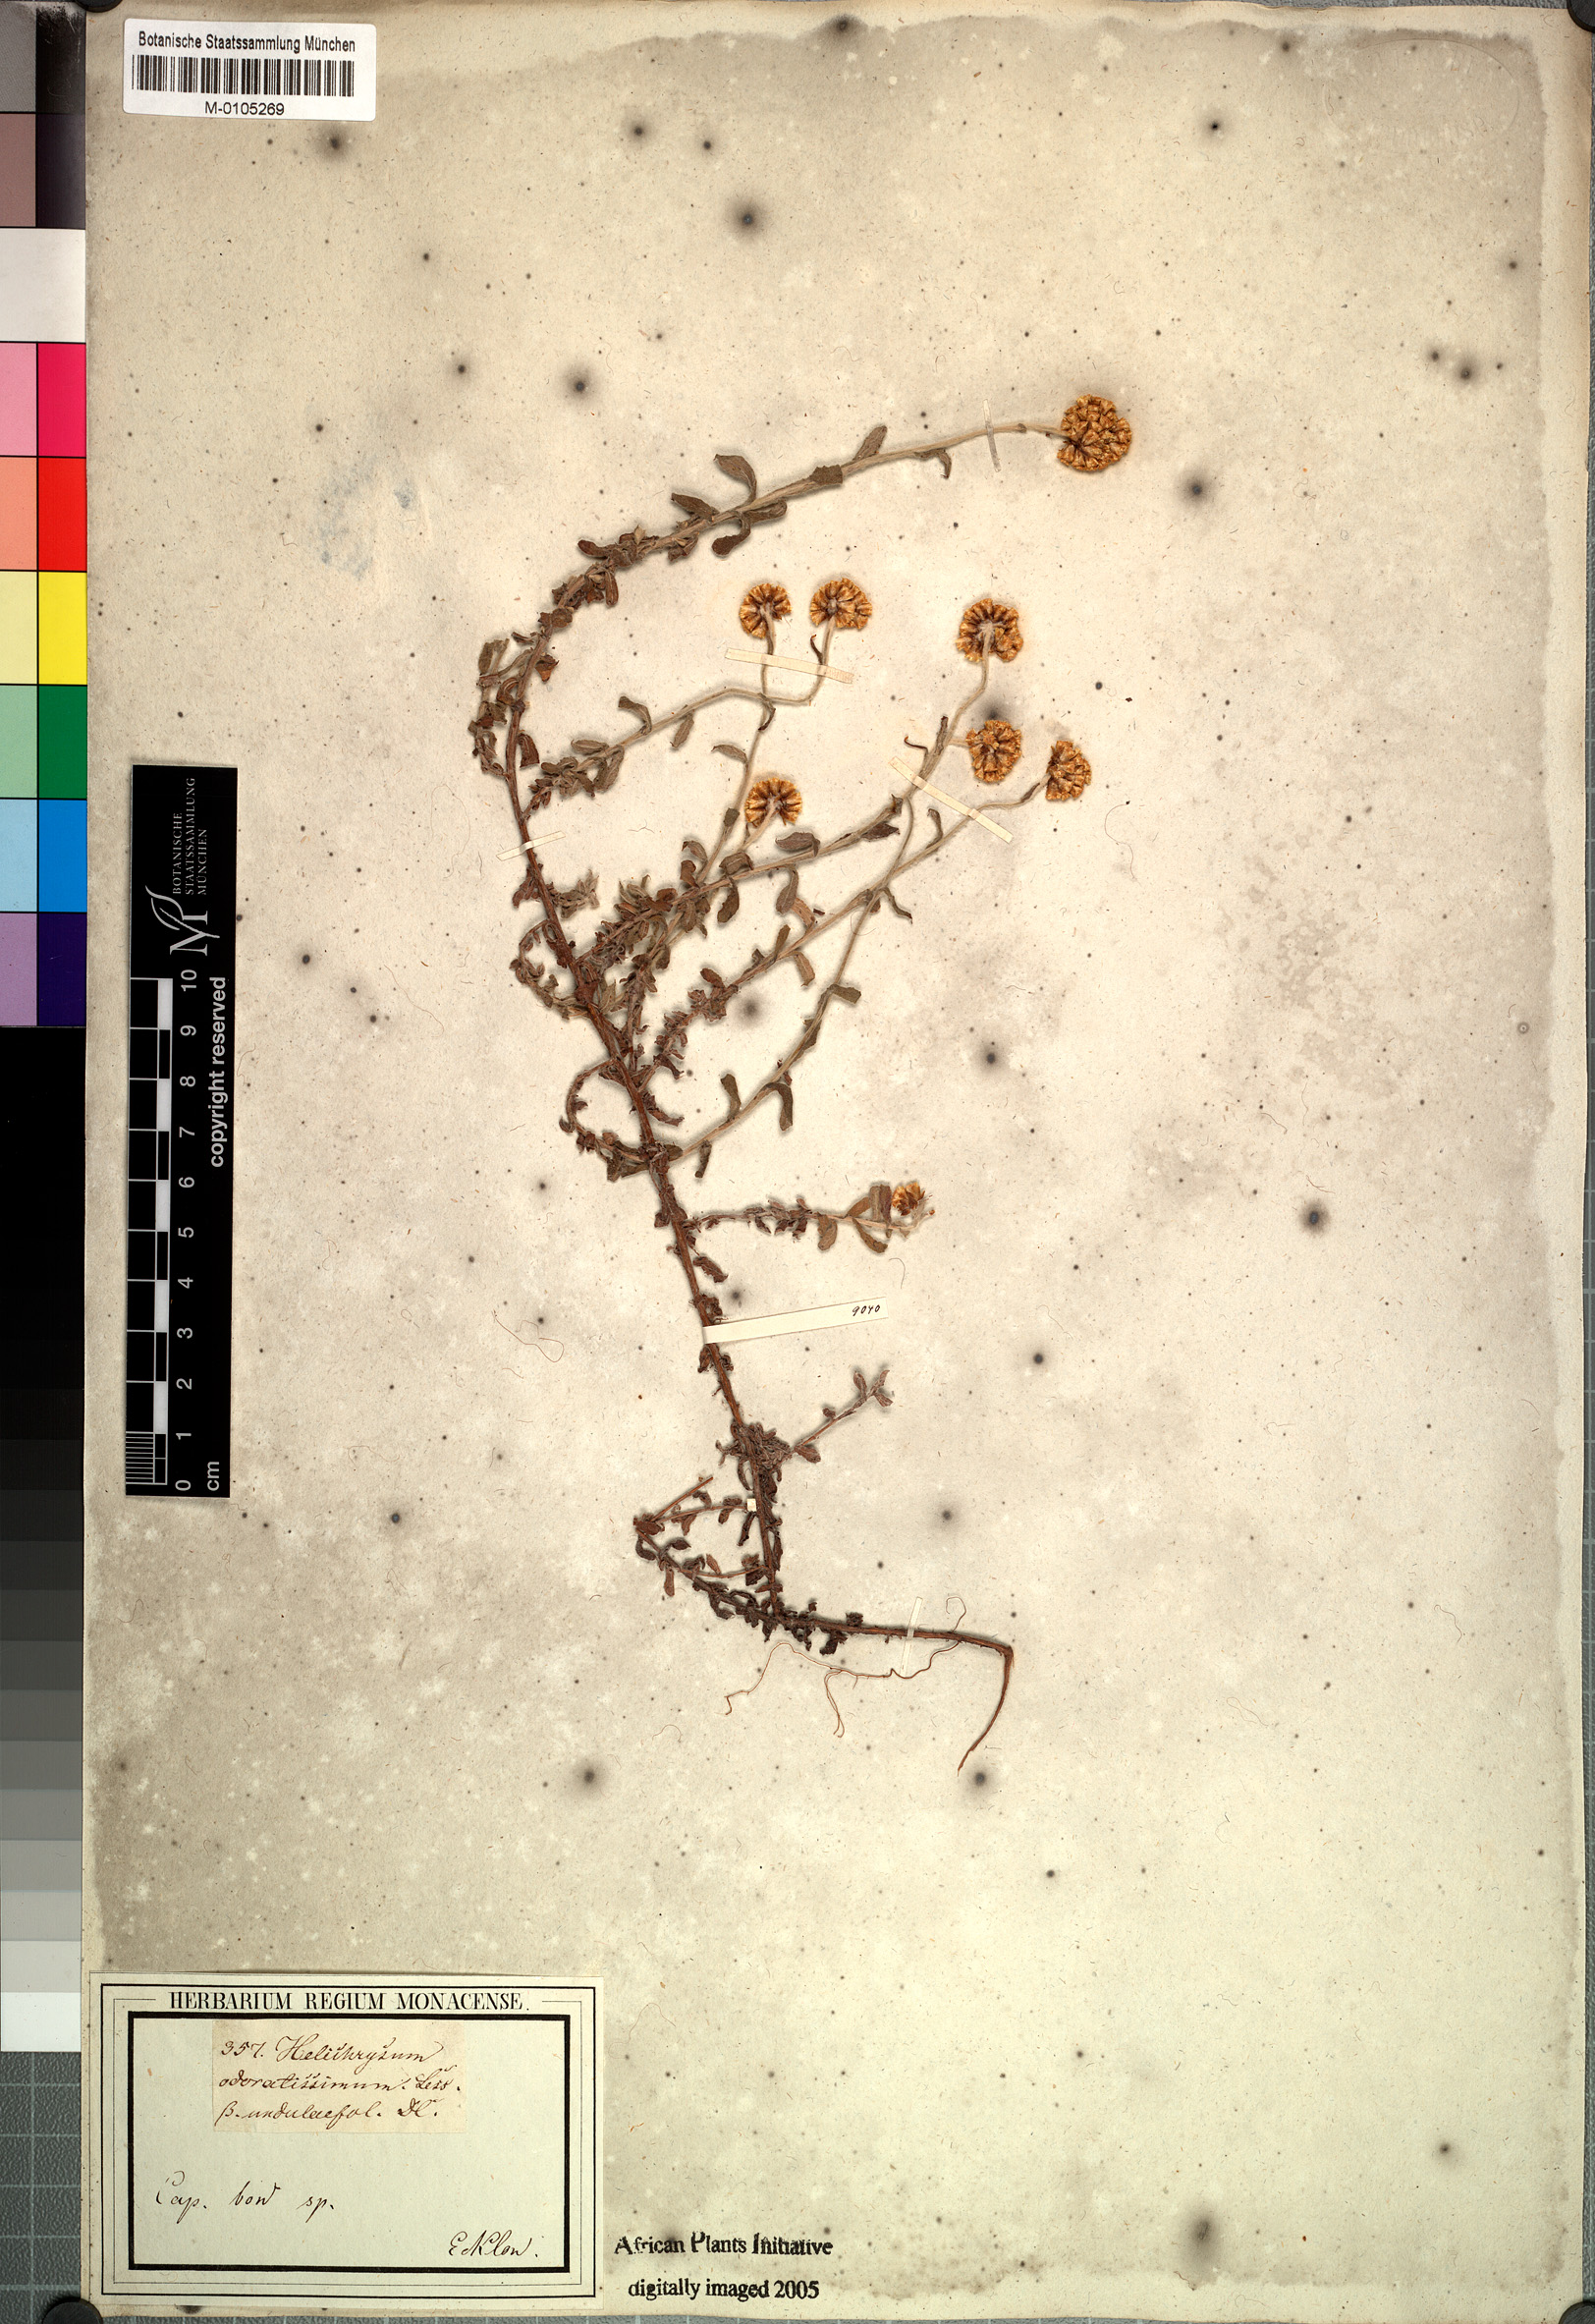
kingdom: Plantae
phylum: Tracheophyta
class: Magnoliopsida
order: Asterales
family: Asteraceae
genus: Helichrysum
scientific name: Helichrysum odoratissimum
